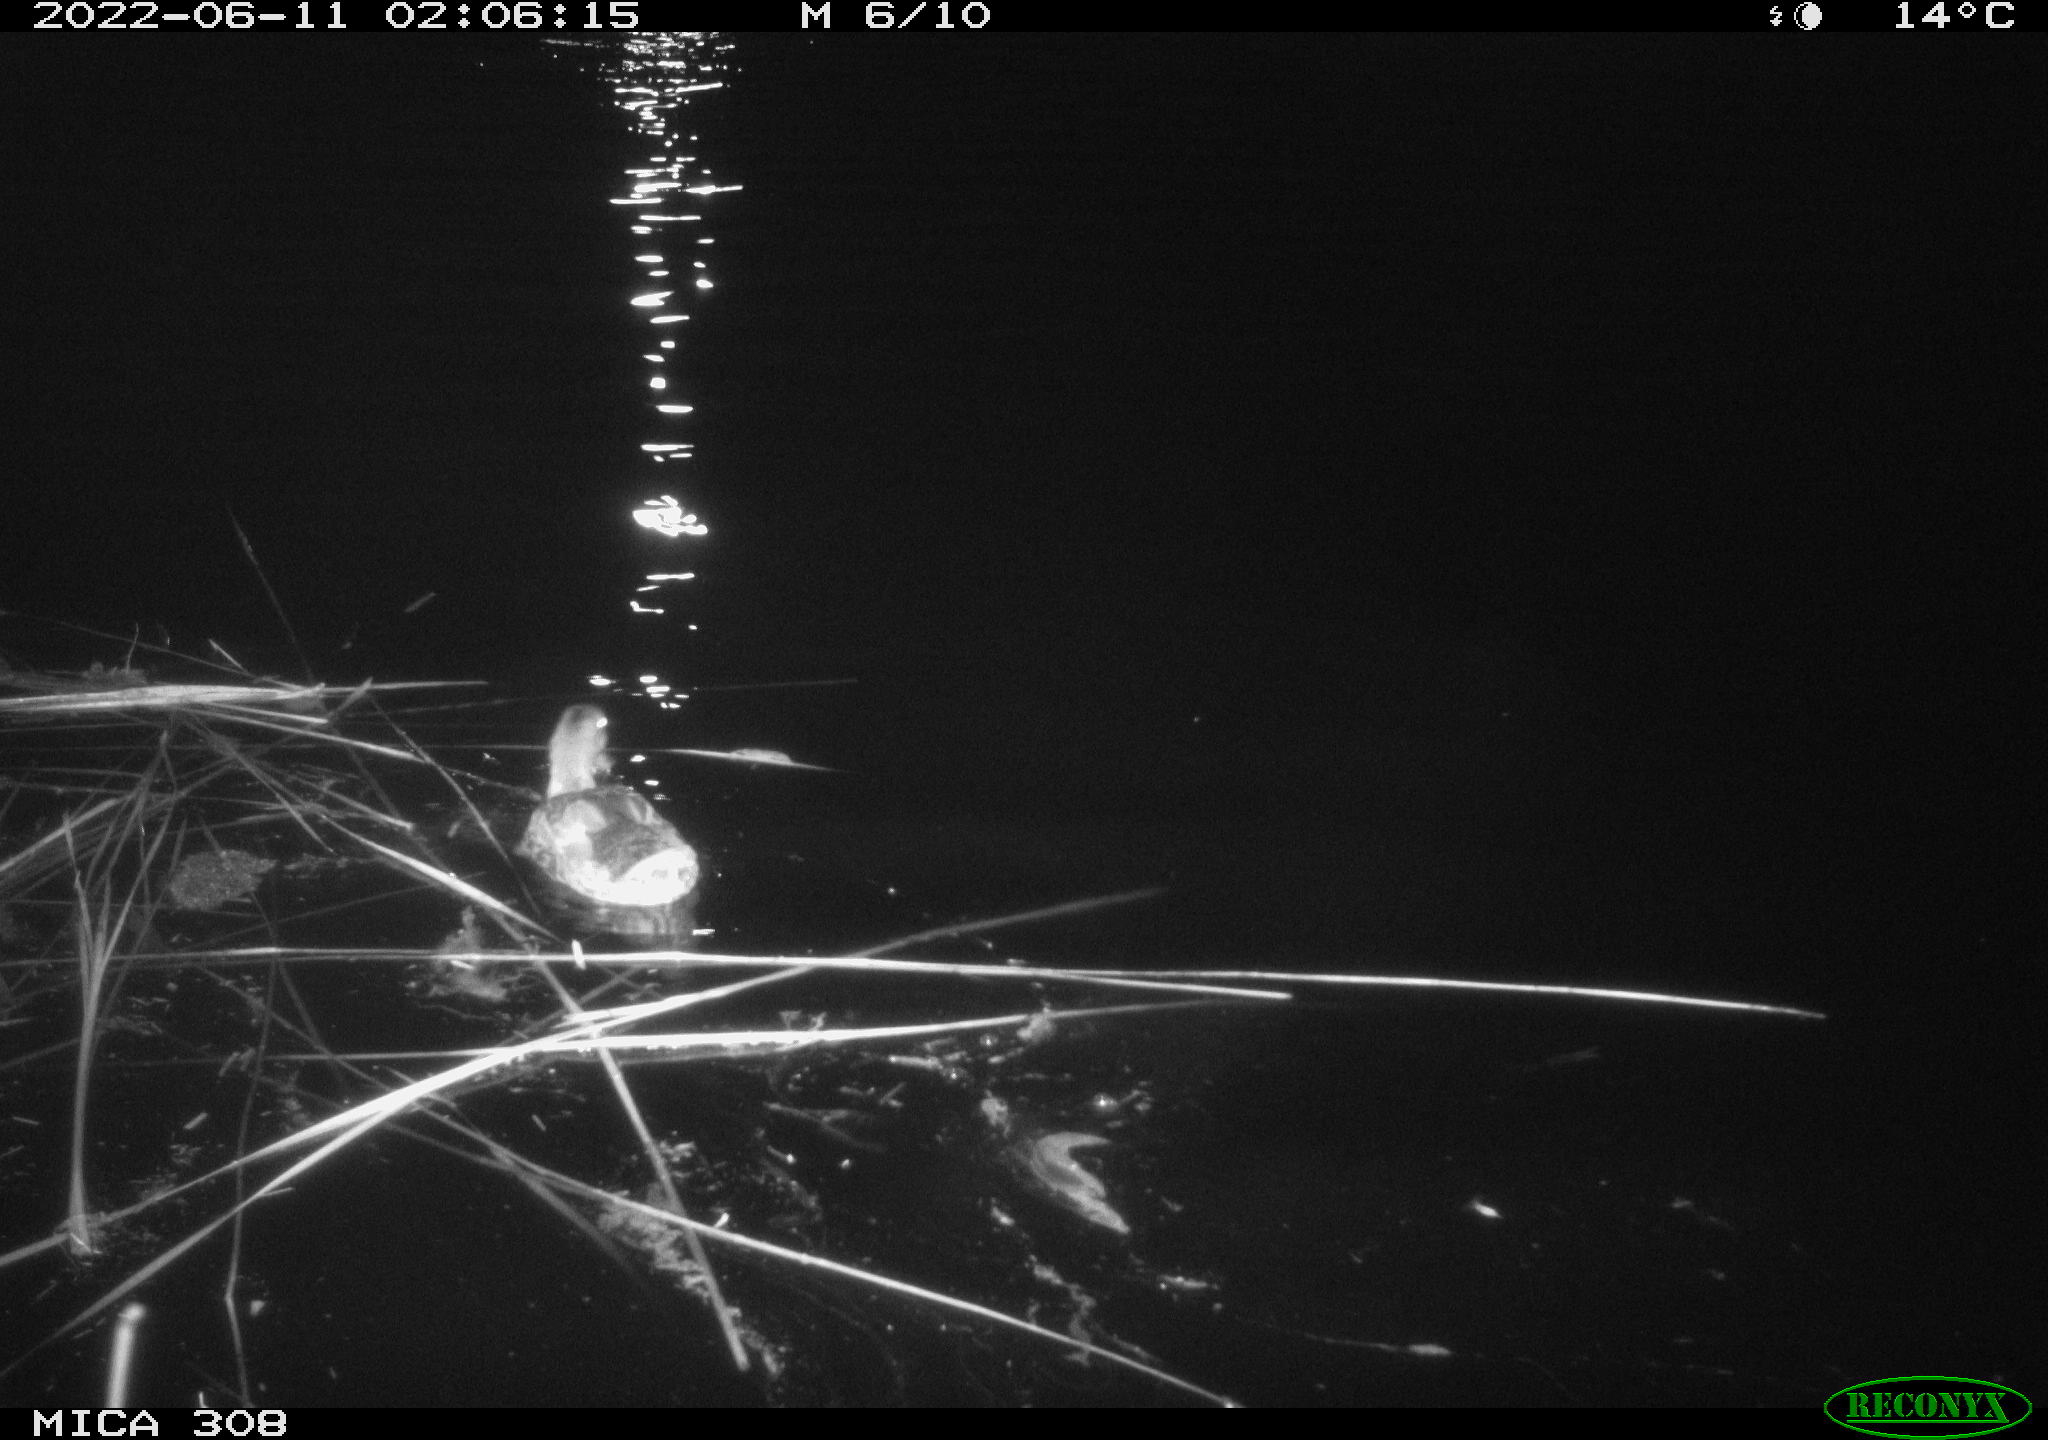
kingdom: Animalia
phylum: Chordata
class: Aves
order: Anseriformes
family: Anatidae
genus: Anas
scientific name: Anas platyrhynchos
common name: Mallard
